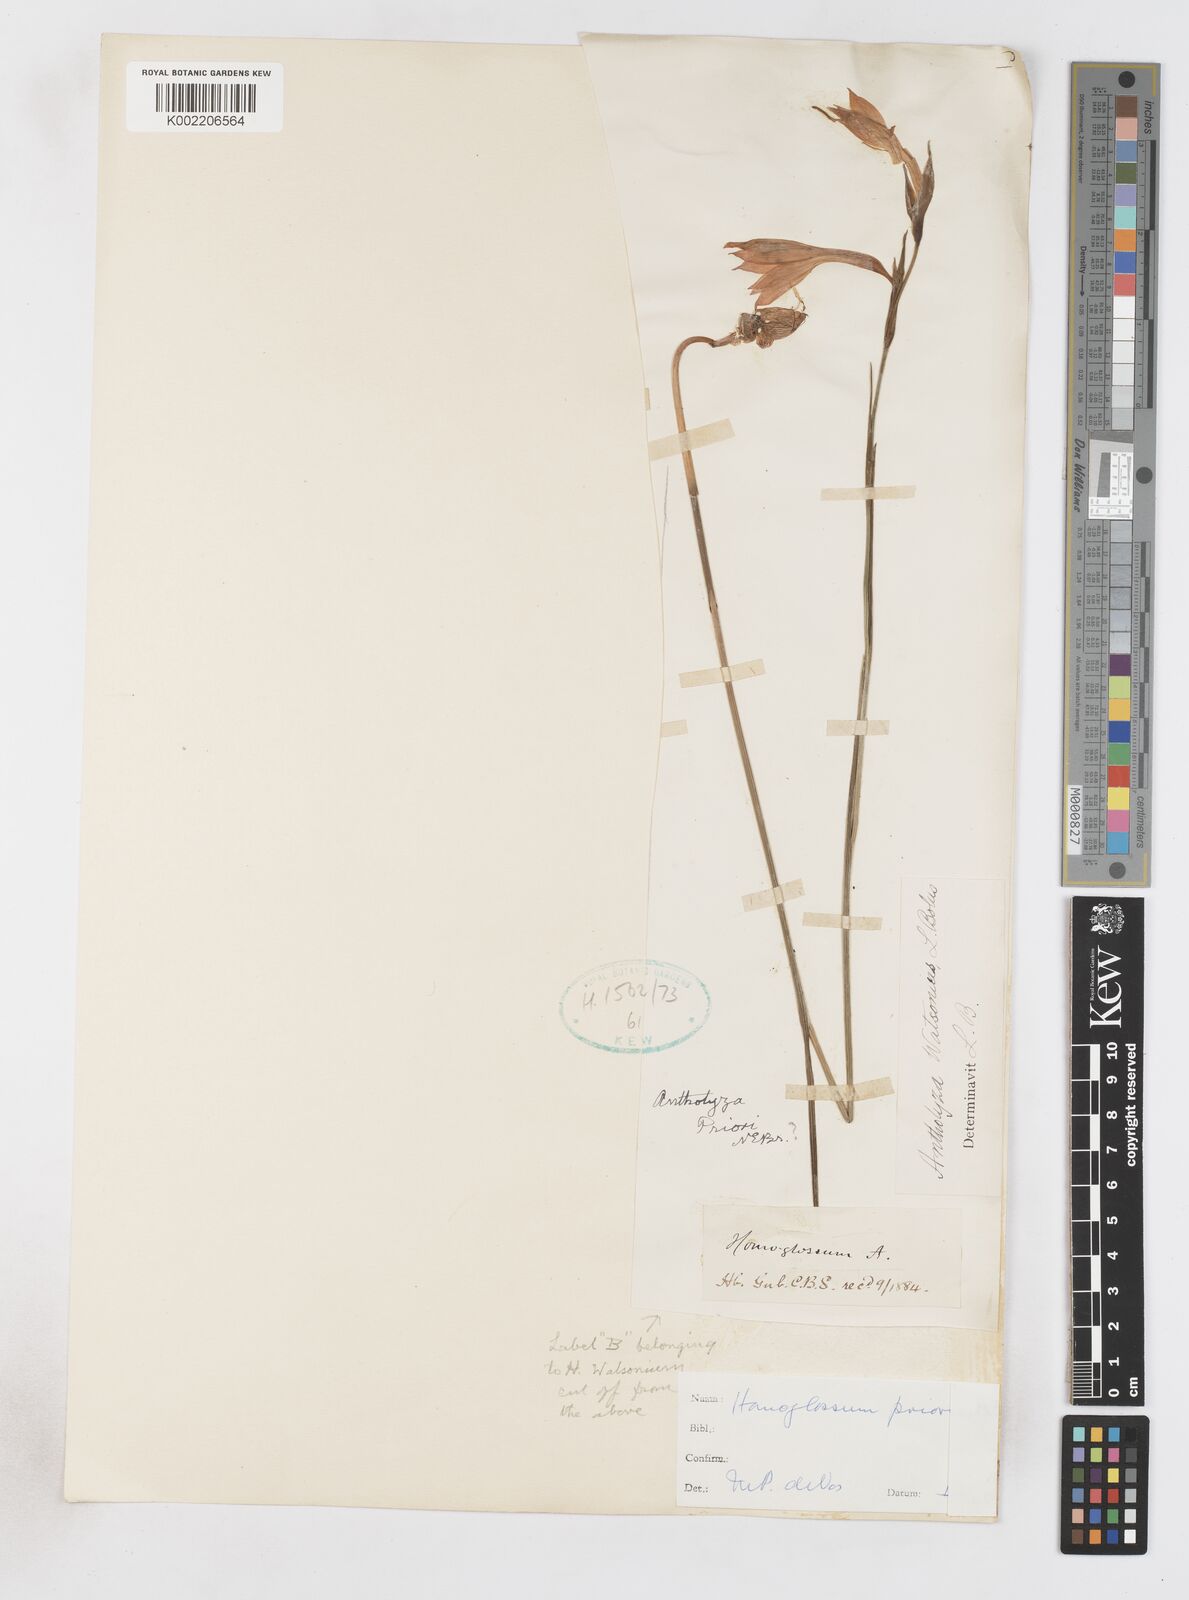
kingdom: Plantae
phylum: Tracheophyta
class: Liliopsida
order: Asparagales
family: Iridaceae
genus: Gladiolus
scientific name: Gladiolus priorii
